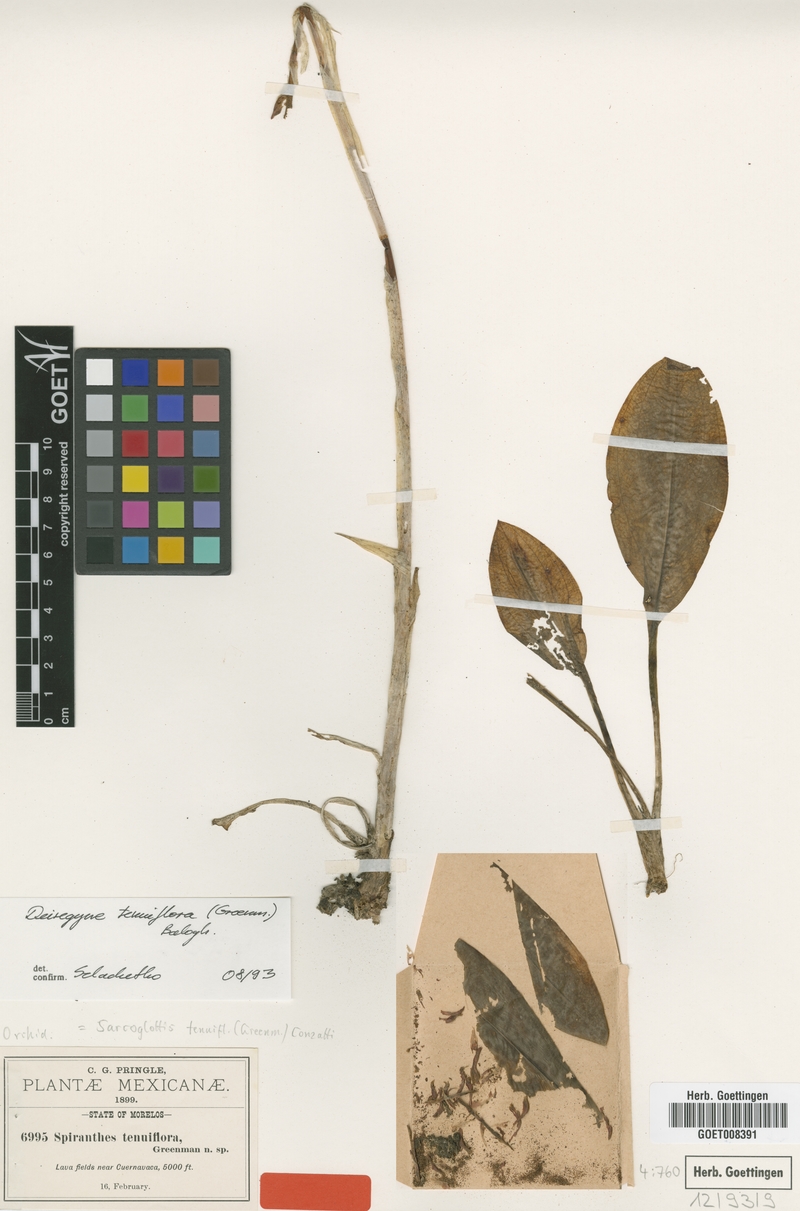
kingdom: Plantae
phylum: Tracheophyta
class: Liliopsida
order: Asparagales
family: Orchidaceae
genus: Aulosepalum
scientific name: Aulosepalum tenuiflorum
